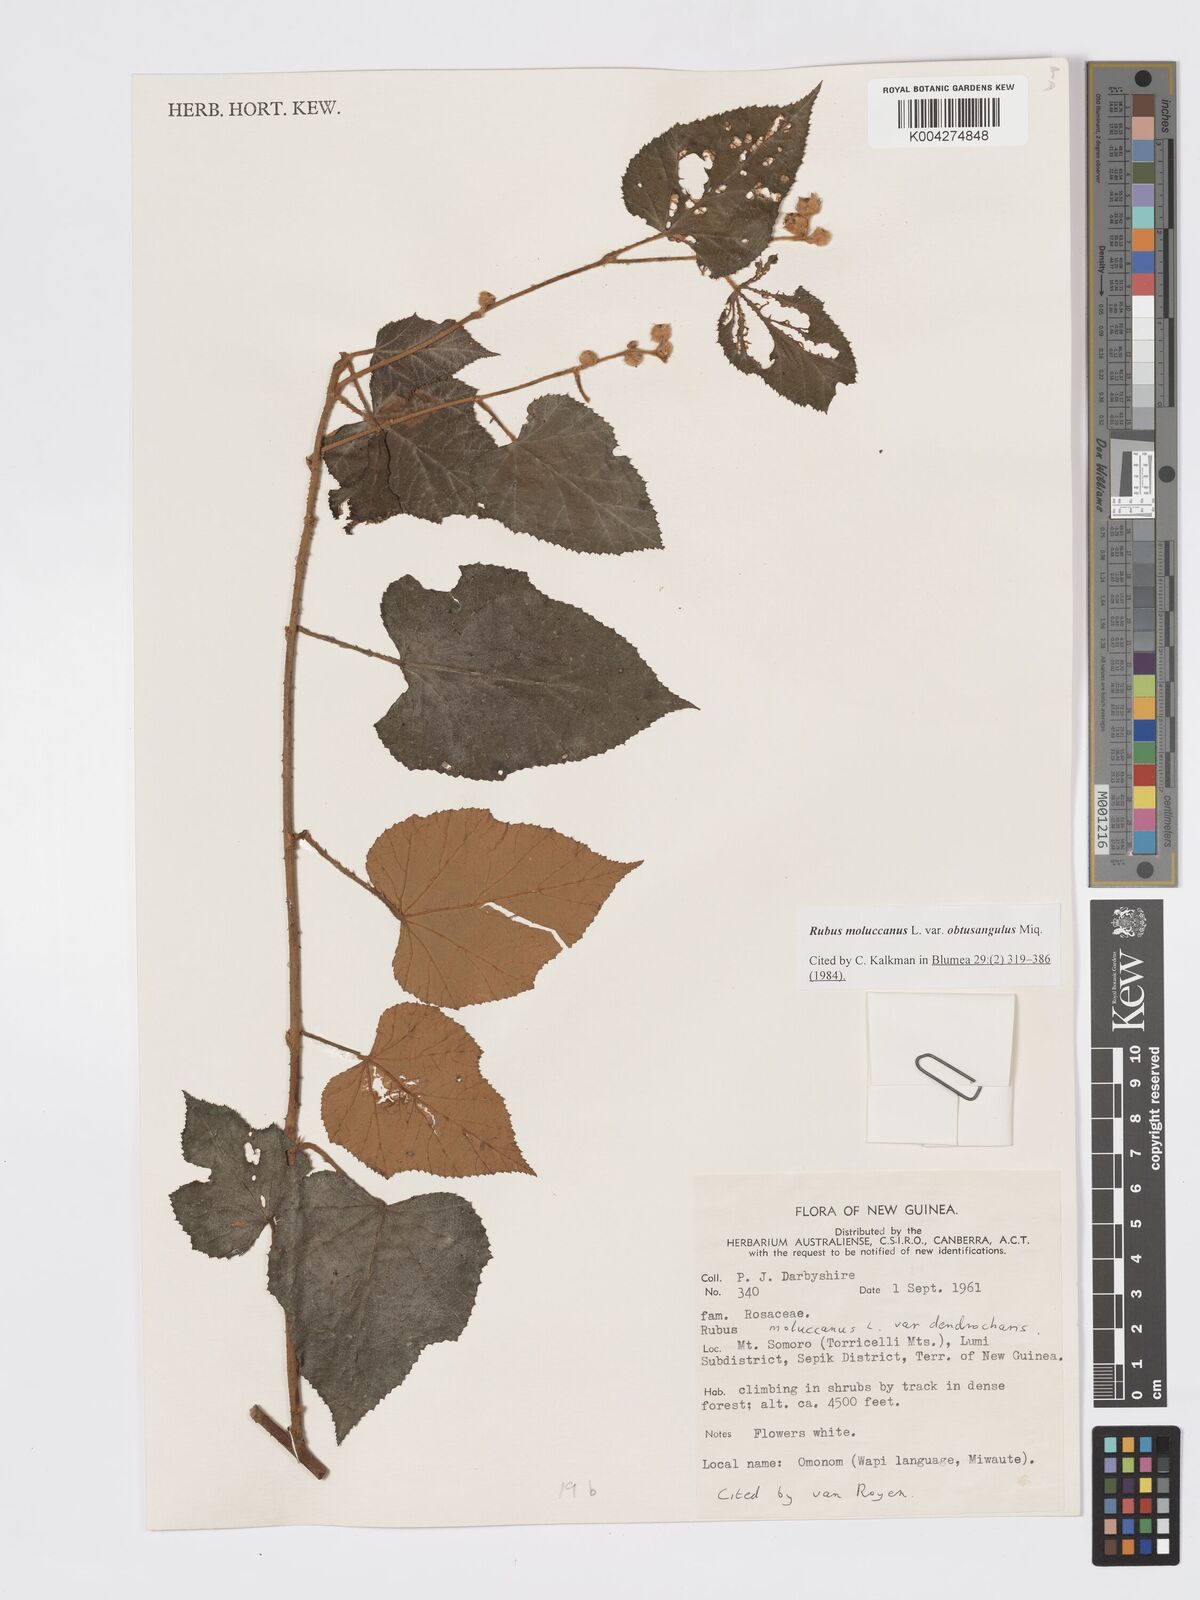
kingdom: Plantae
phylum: Tracheophyta
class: Magnoliopsida
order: Rosales
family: Rosaceae
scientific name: Rosaceae
